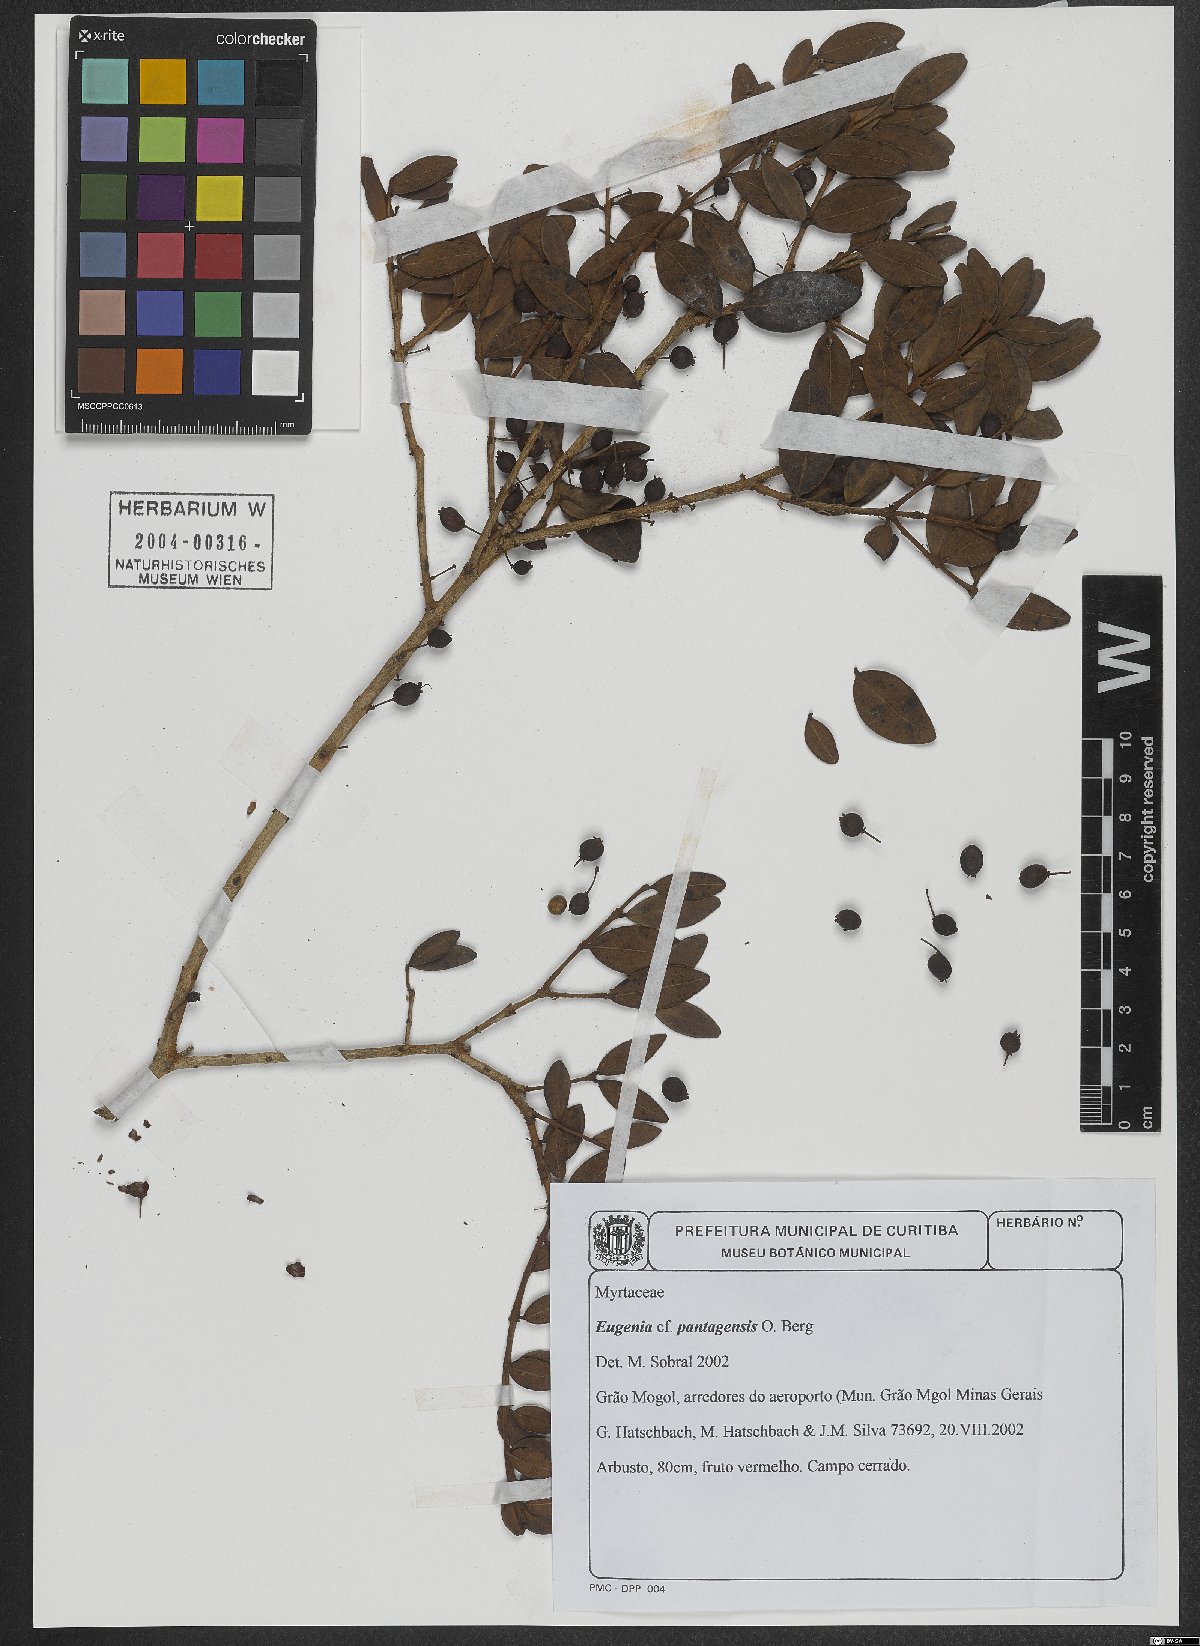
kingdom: Plantae
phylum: Tracheophyta
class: Magnoliopsida
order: Myrtales
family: Myrtaceae
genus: Eugenia
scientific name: Eugenia pantagensis
